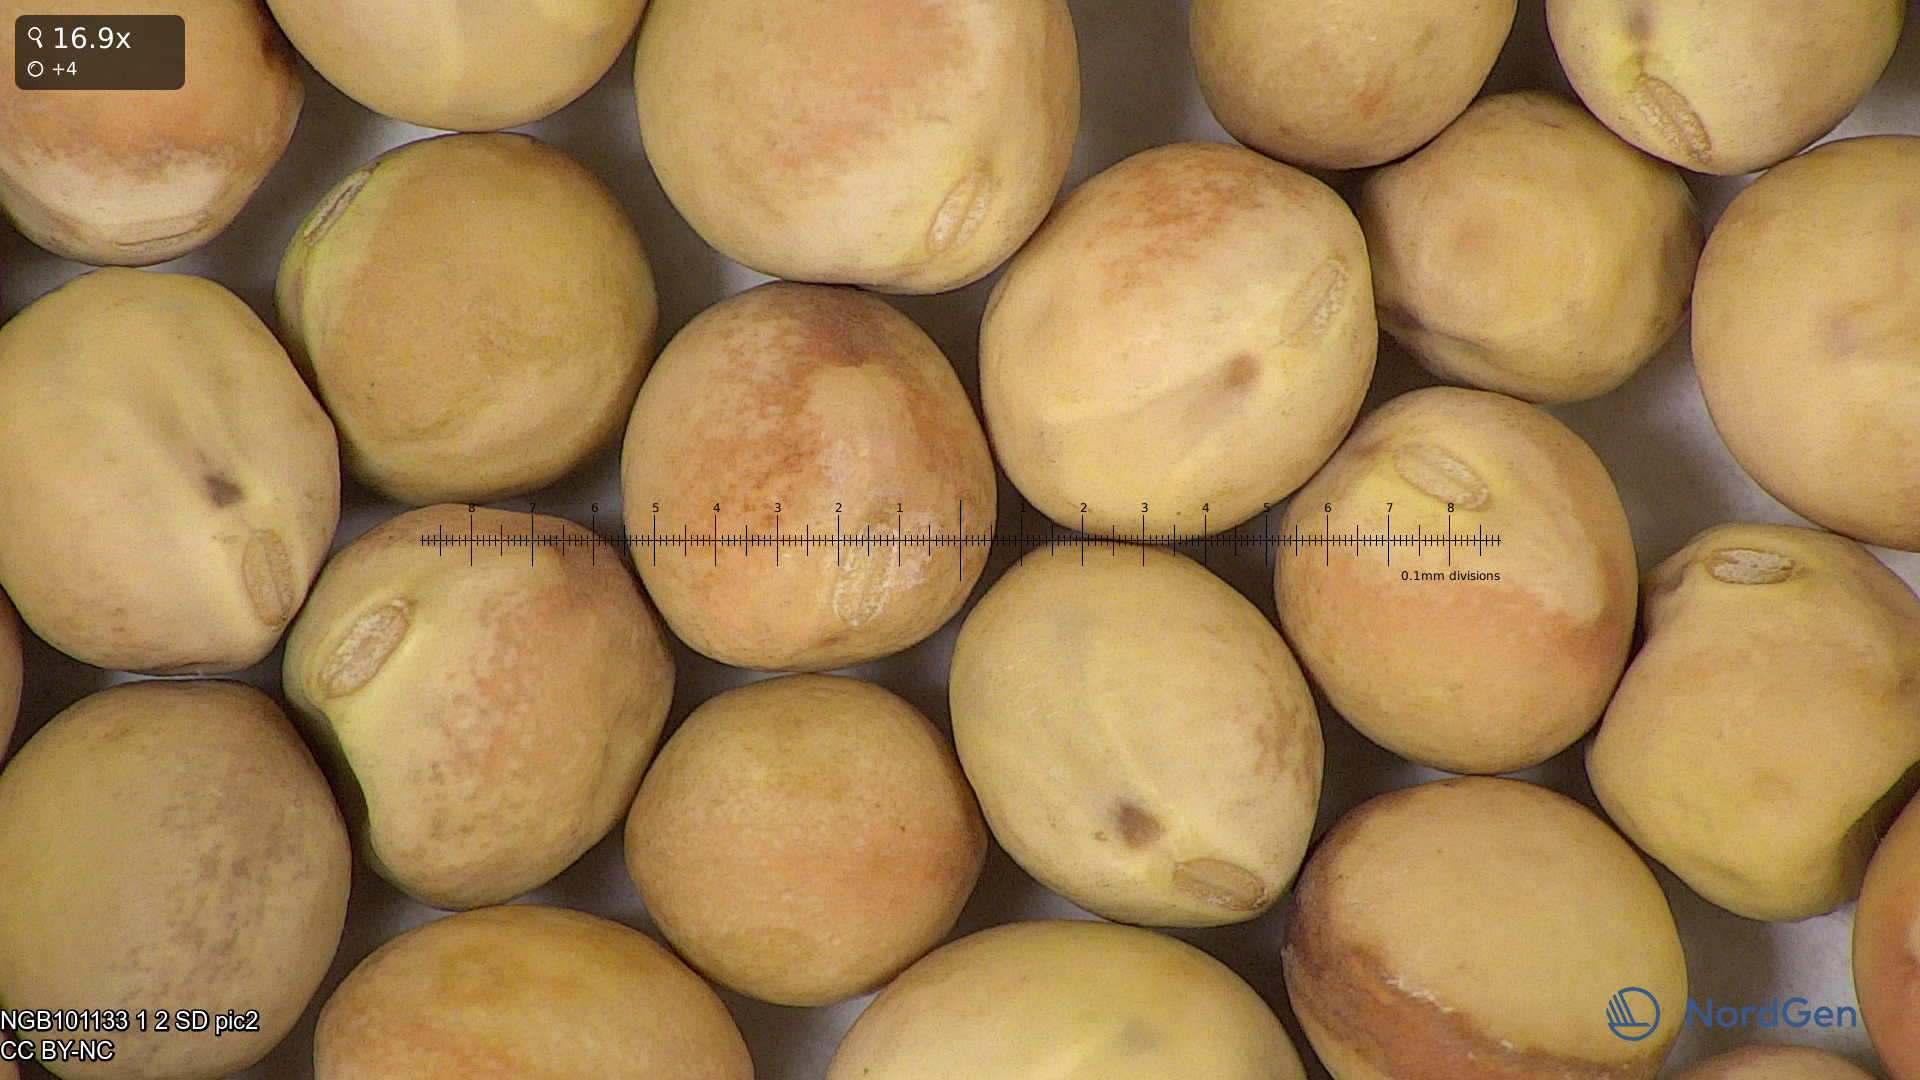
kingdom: Plantae
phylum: Tracheophyta
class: Magnoliopsida
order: Fabales
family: Fabaceae
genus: Lathyrus
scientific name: Lathyrus oleraceus
